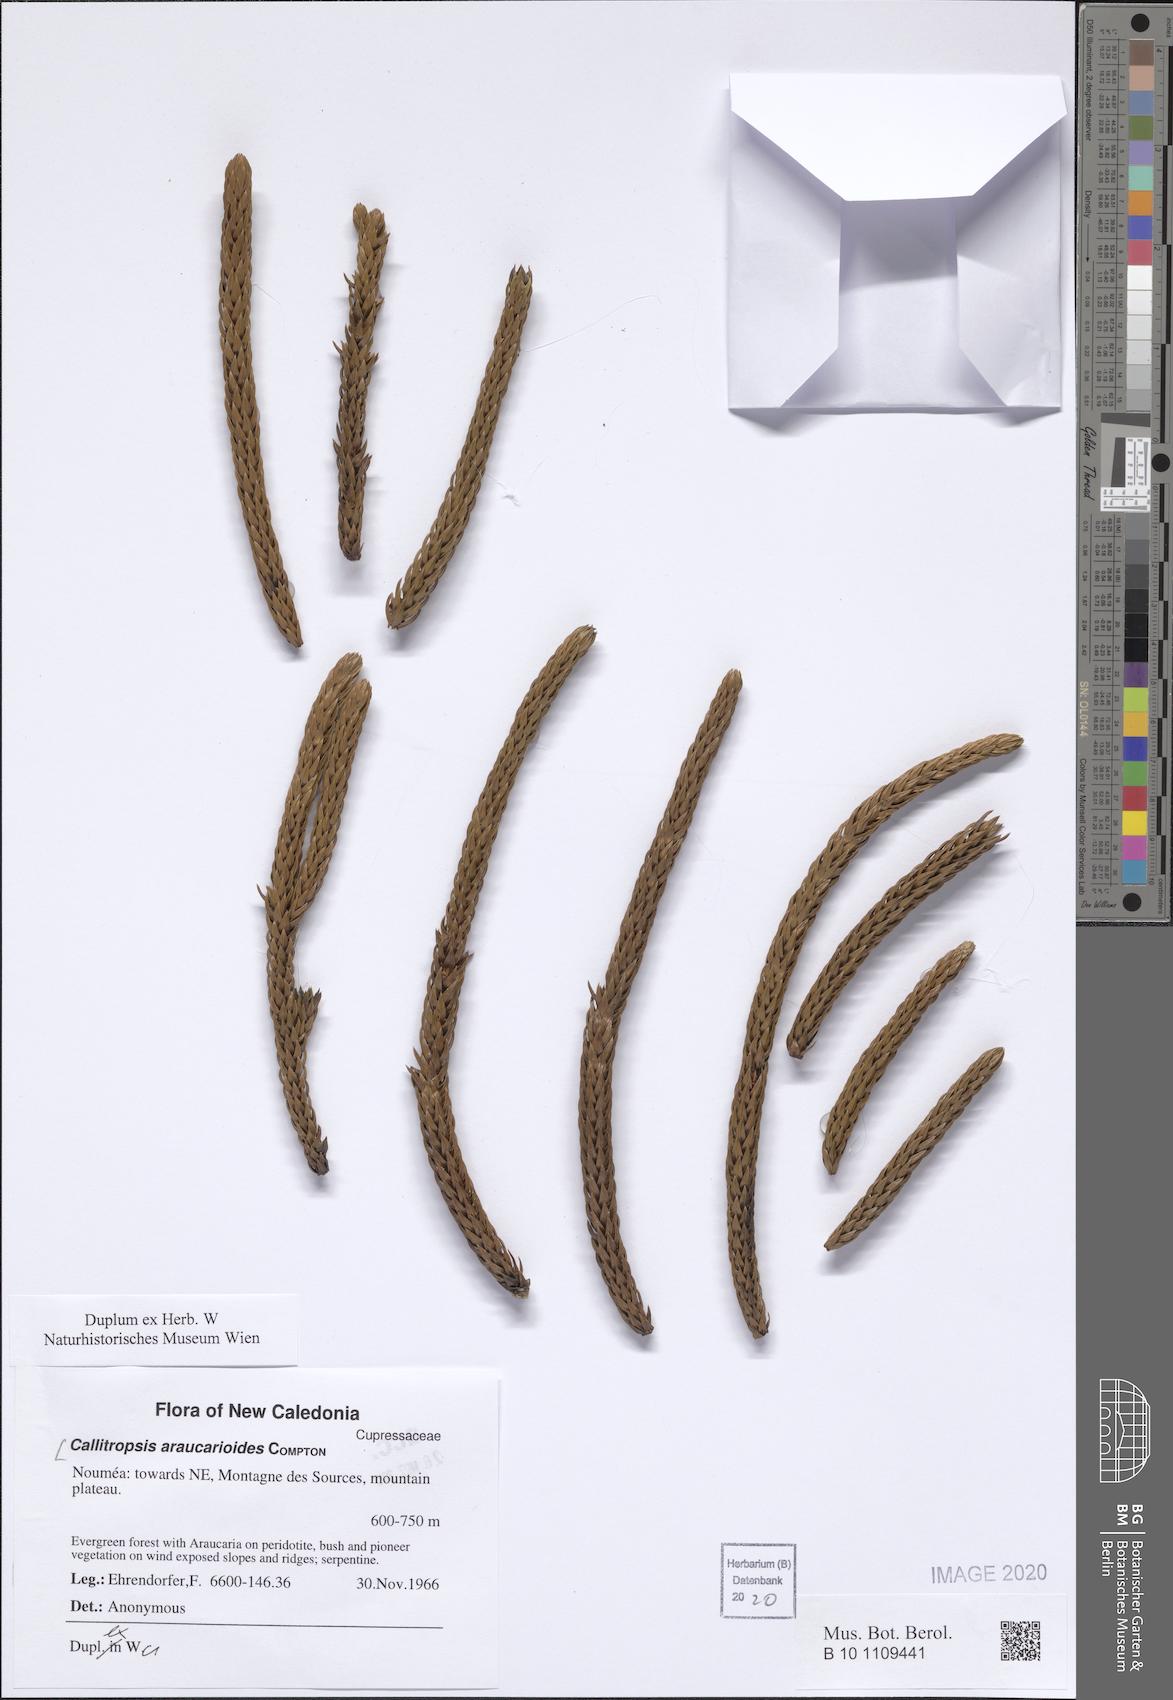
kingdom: Plantae
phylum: Tracheophyta
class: Pinopsida
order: Pinales
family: Cupressaceae
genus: Neocallitropsis
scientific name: Neocallitropsis pancheri
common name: Pancher neocallitropsis
